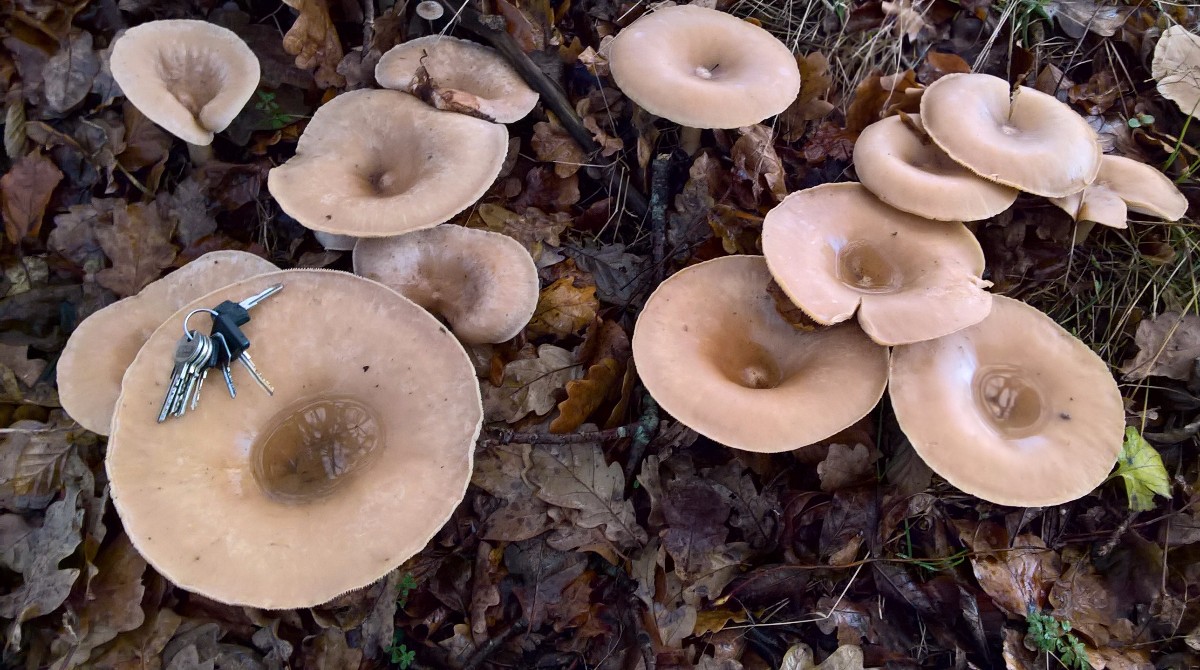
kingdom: Fungi
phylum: Basidiomycota
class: Agaricomycetes
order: Agaricales
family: Tricholomataceae
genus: Infundibulicybe
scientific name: Infundibulicybe geotropa
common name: stor tragthat
